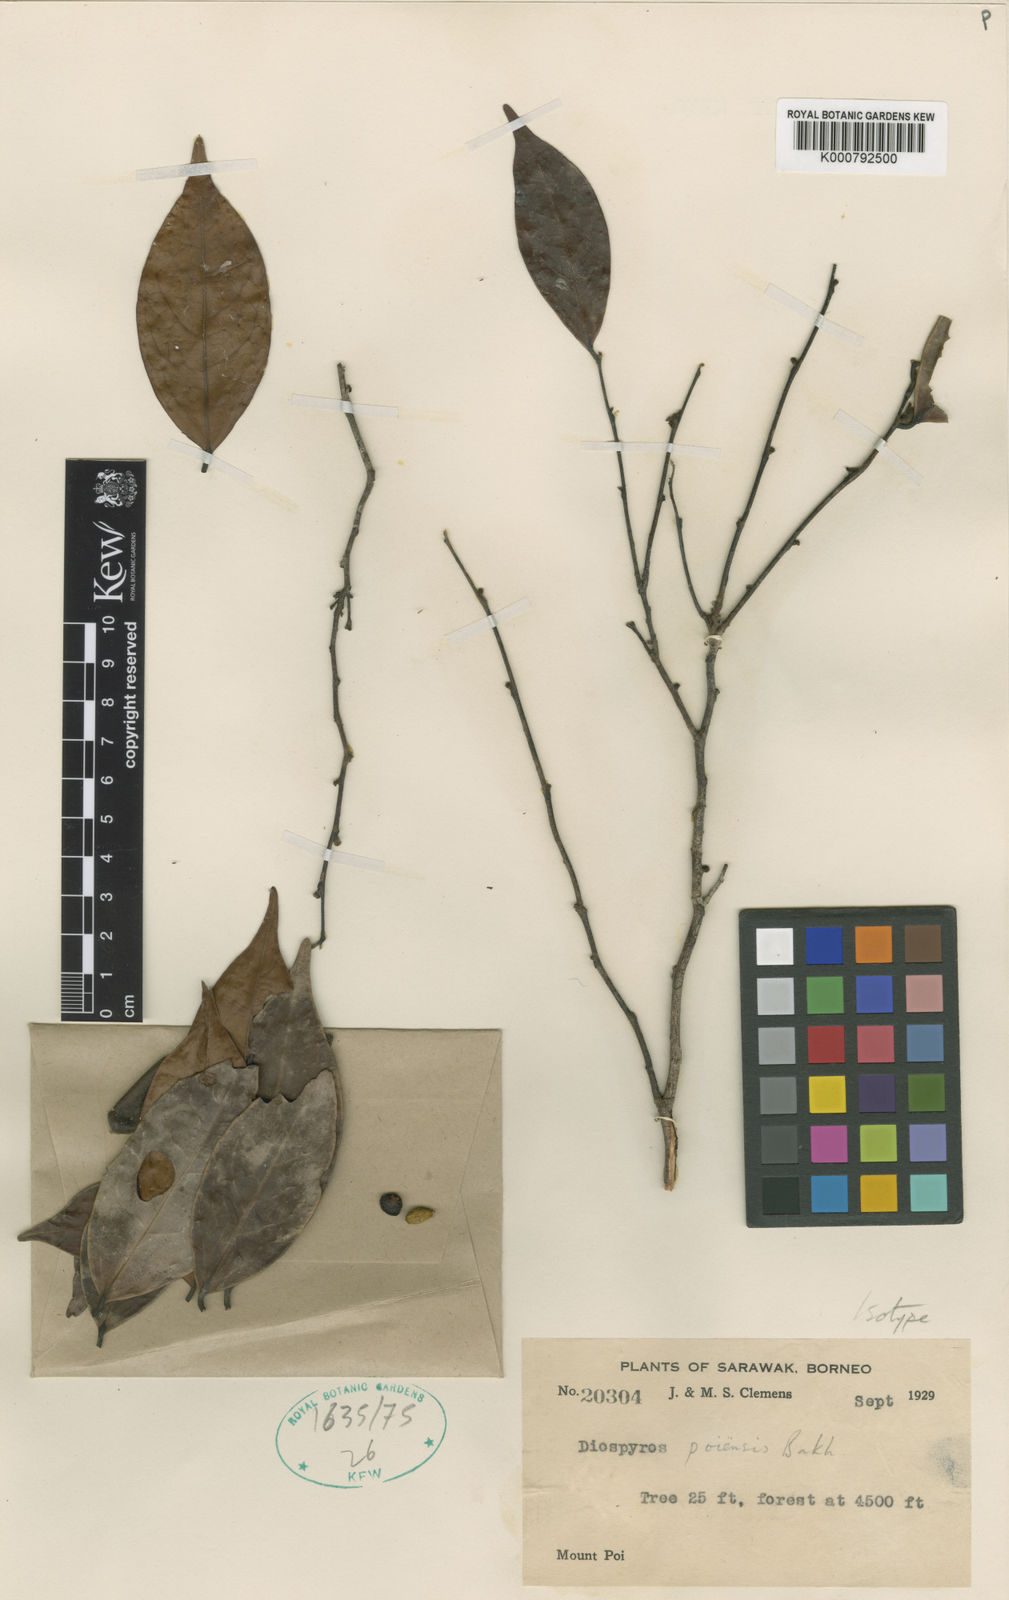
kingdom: Plantae
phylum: Tracheophyta
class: Magnoliopsida
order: Ericales
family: Ebenaceae
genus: Diospyros
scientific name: Diospyros plectosepala
